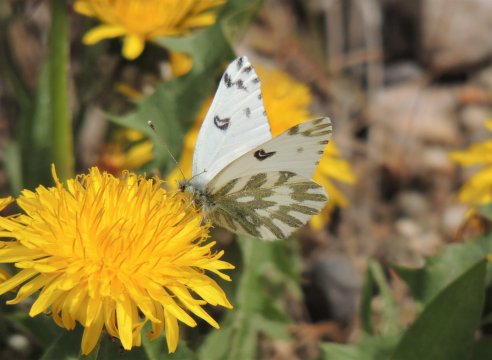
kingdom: Animalia
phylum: Arthropoda
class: Insecta
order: Lepidoptera
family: Pieridae
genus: Pontia
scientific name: Pontia beckerii
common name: Becker's White
